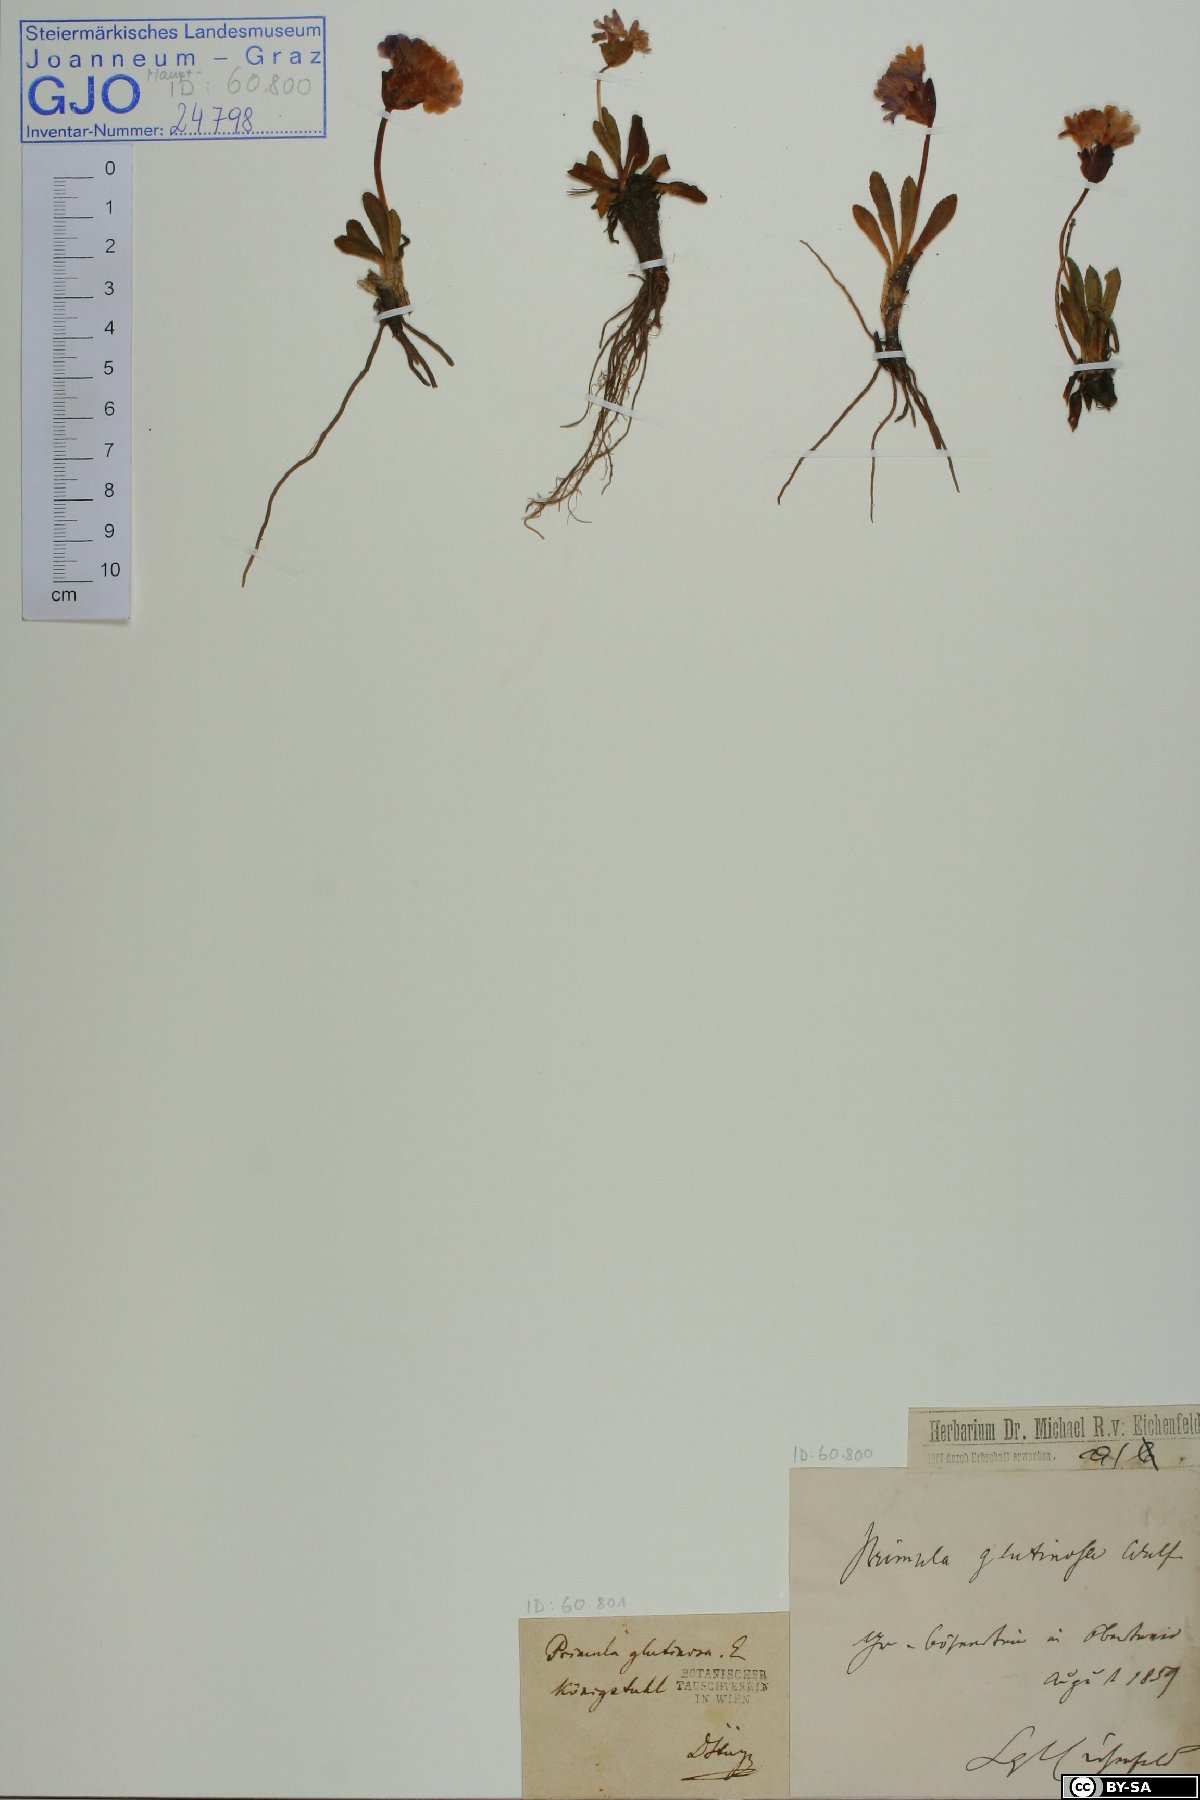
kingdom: Plantae
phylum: Tracheophyta
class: Magnoliopsida
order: Ericales
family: Primulaceae
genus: Primula
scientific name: Primula glutinosa
